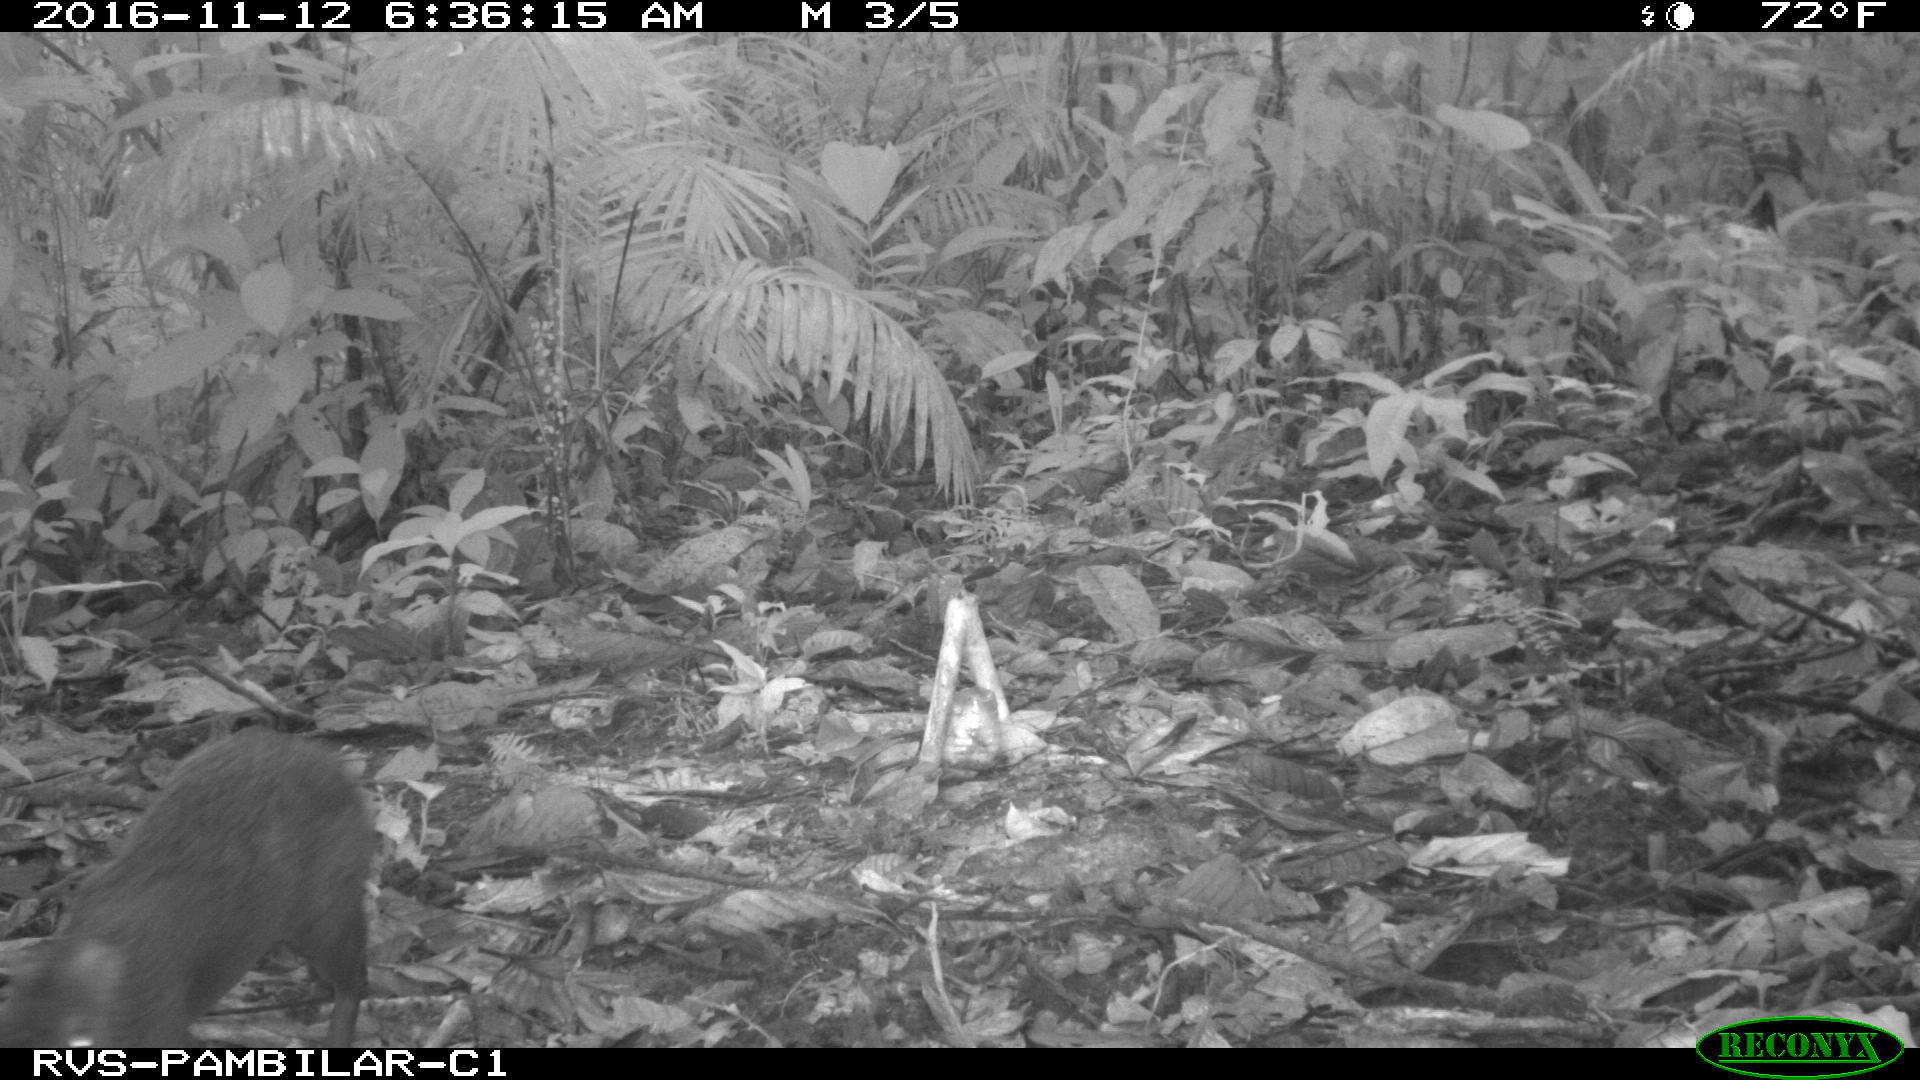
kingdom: Animalia
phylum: Chordata
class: Mammalia
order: Rodentia
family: Dasyproctidae
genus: Dasyprocta
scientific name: Dasyprocta punctata
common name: Central american agouti
